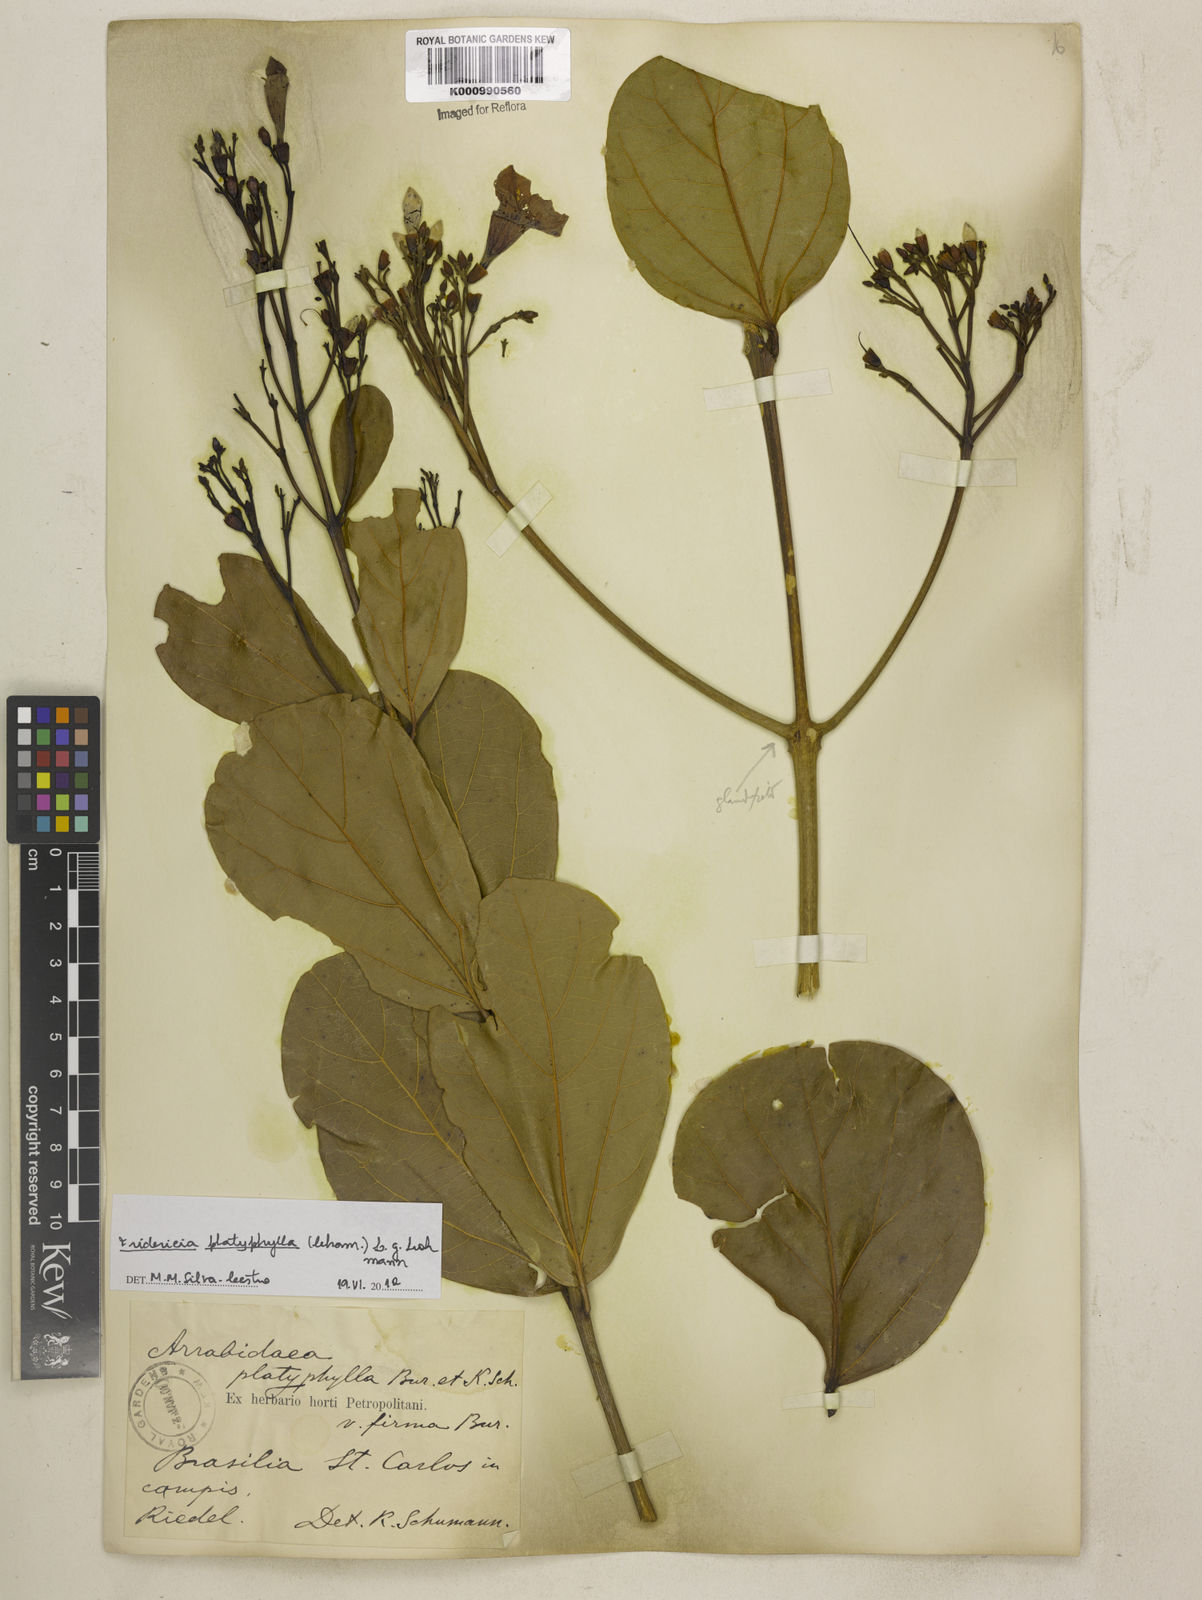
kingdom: Plantae
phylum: Tracheophyta
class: Magnoliopsida
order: Lamiales
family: Bignoniaceae
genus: Fridericia
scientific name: Fridericia platyphylla
